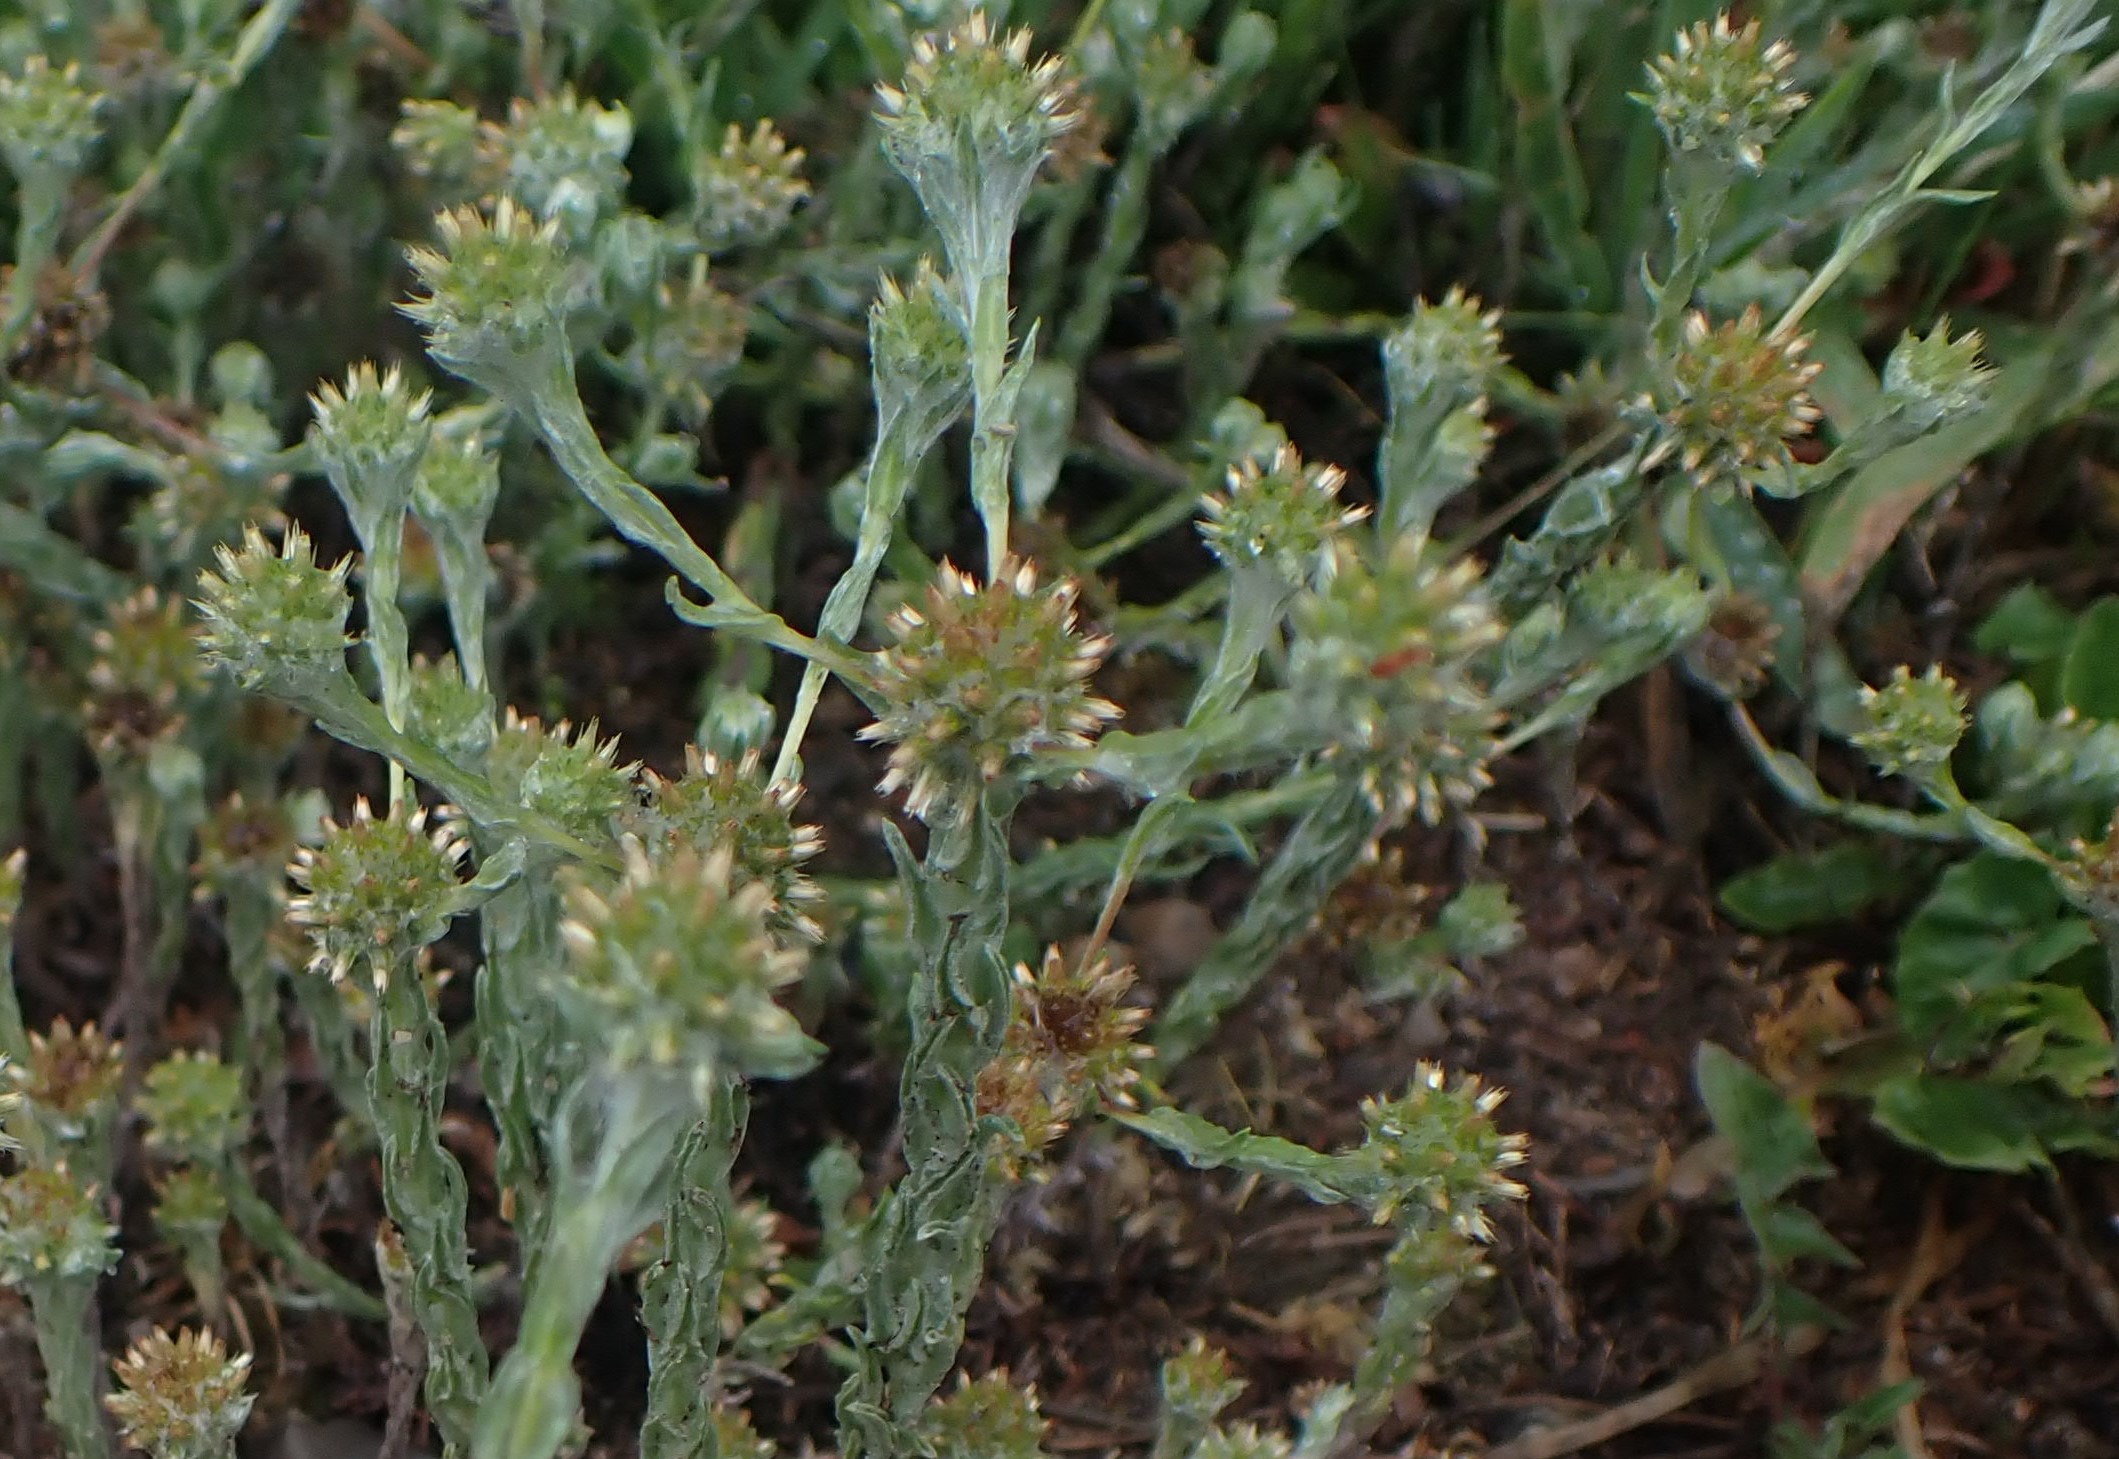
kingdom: Plantae
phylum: Tracheophyta
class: Magnoliopsida
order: Asterales
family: Asteraceae
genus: Filago
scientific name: Filago germanica
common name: Kugle-museurt
